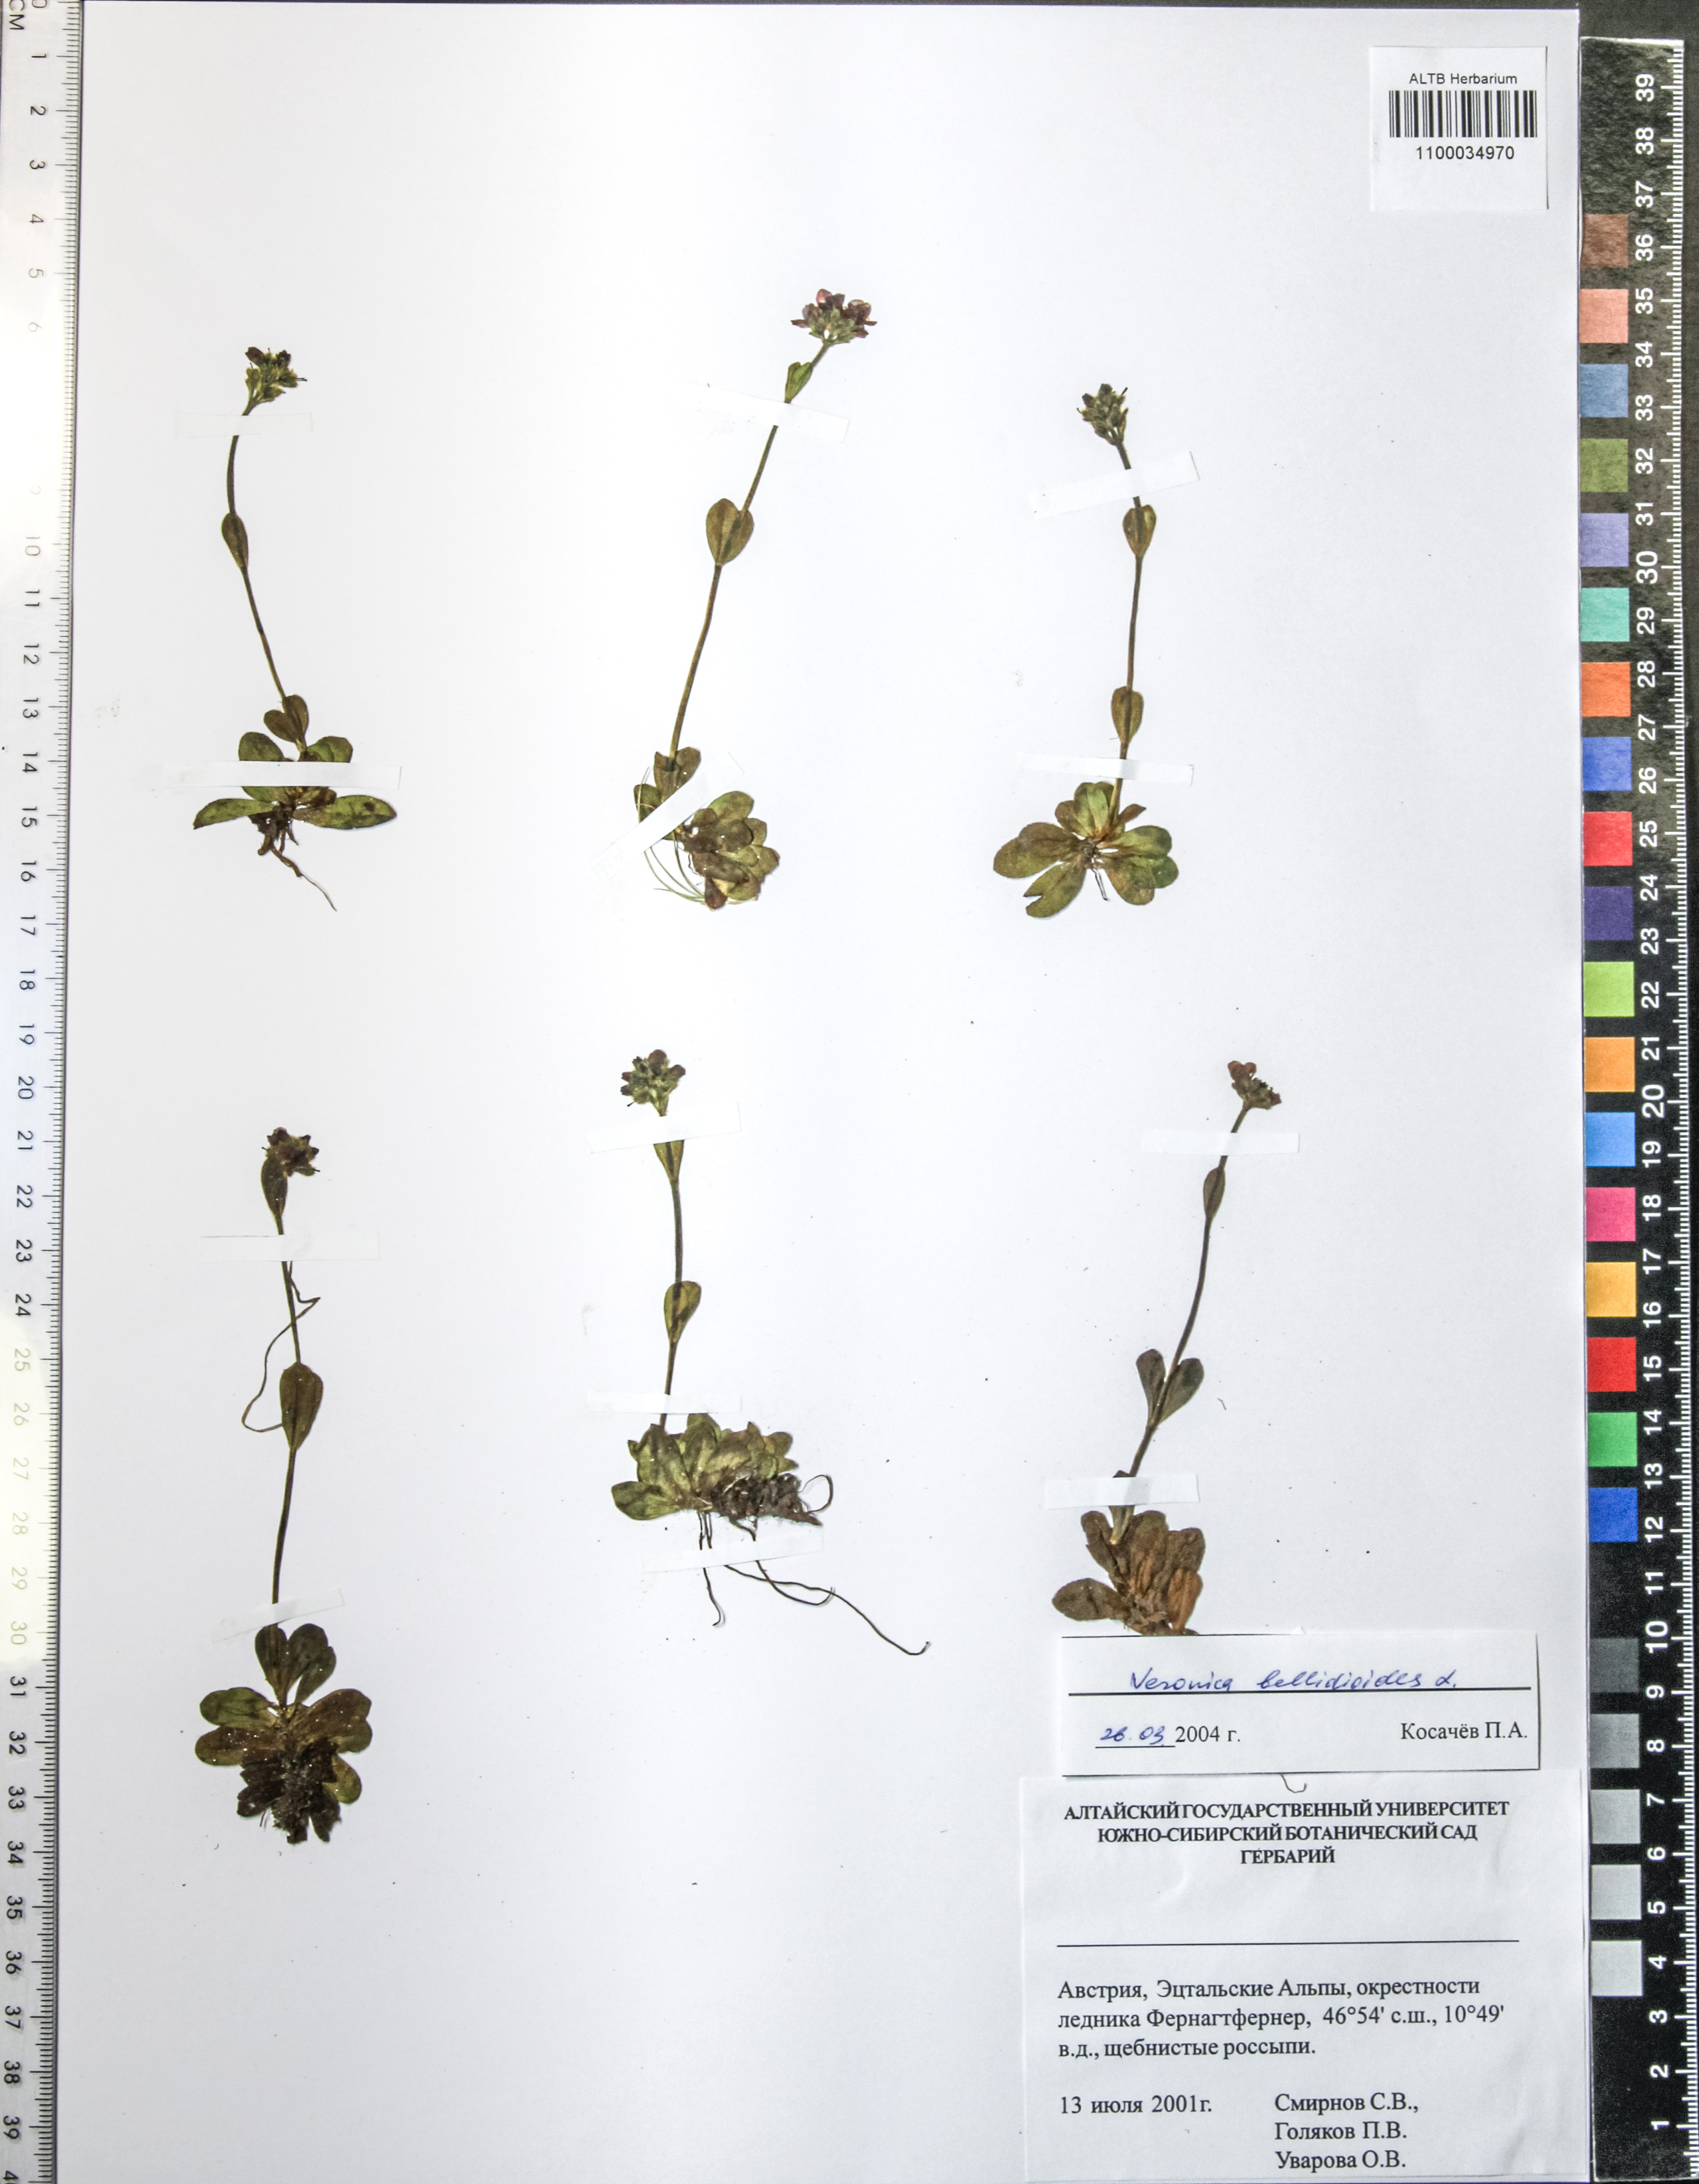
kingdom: Plantae
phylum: Tracheophyta
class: Magnoliopsida
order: Lamiales
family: Plantaginaceae
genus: Veronica
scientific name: Veronica bellidioides
